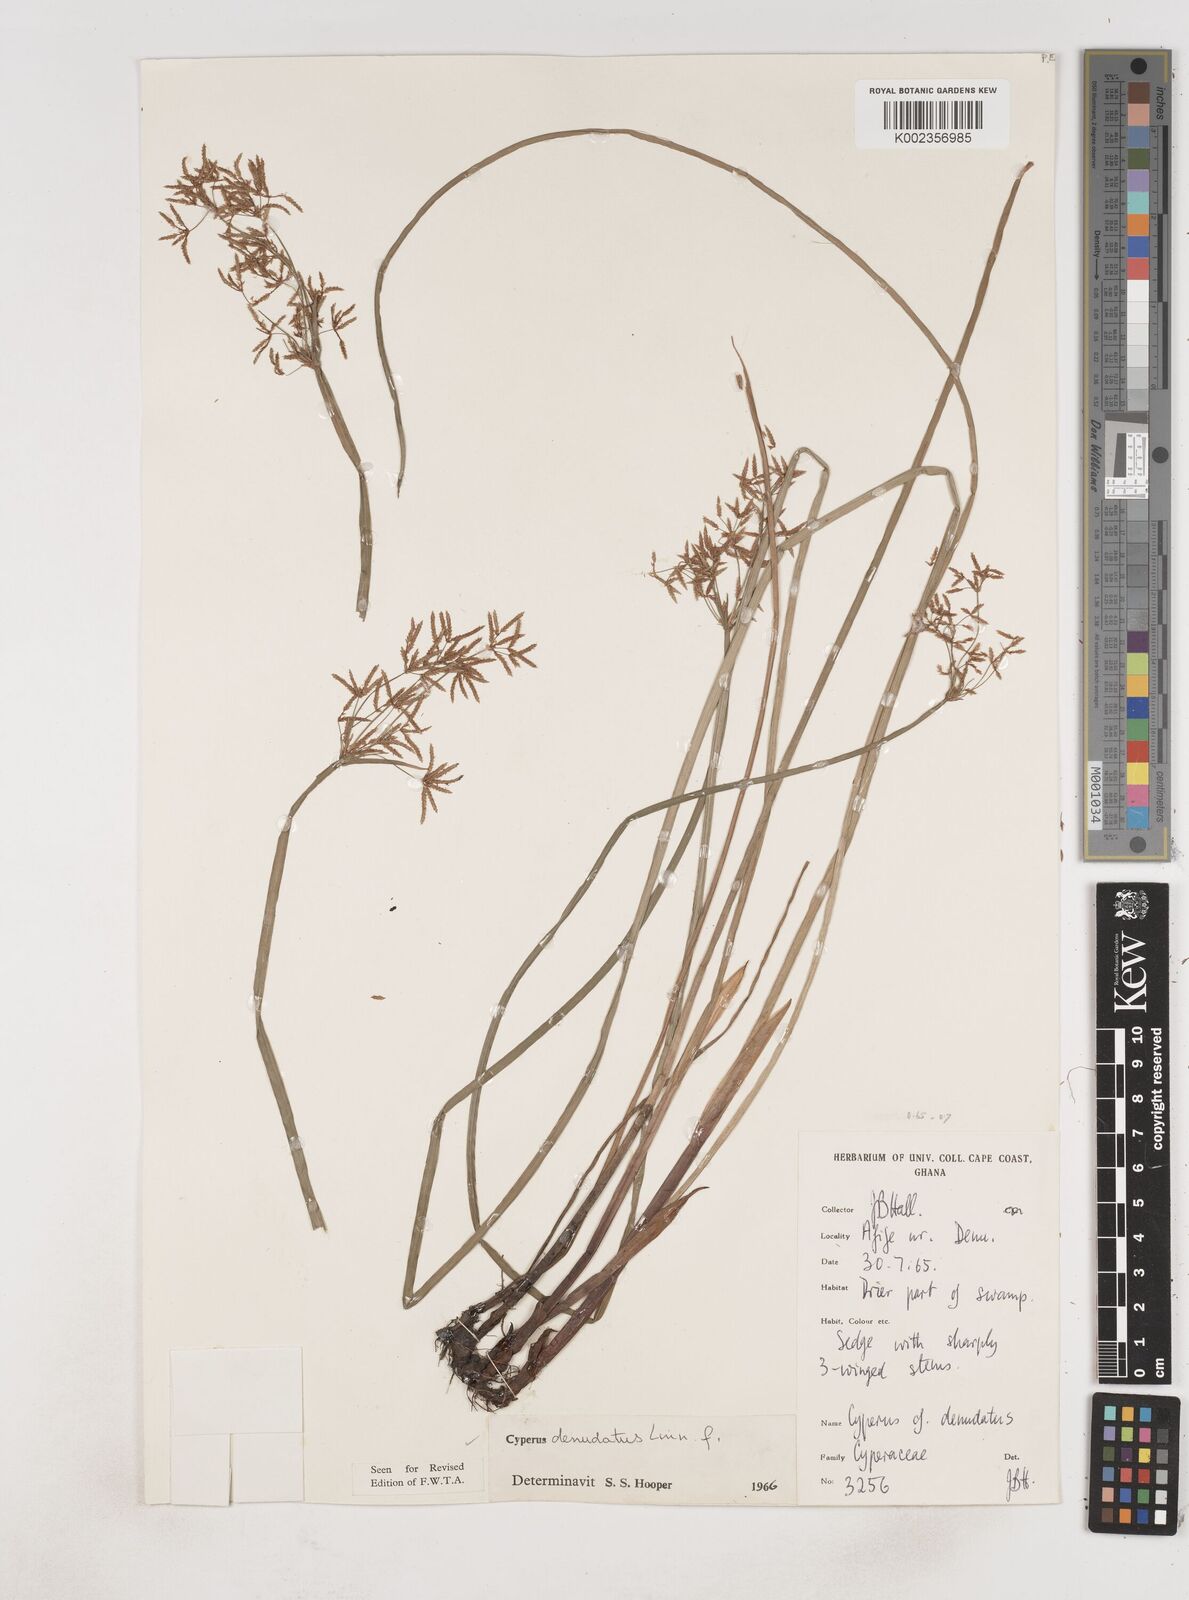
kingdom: Plantae
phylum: Tracheophyta
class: Liliopsida
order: Poales
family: Cyperaceae
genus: Cyperus
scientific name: Cyperus denudatus
